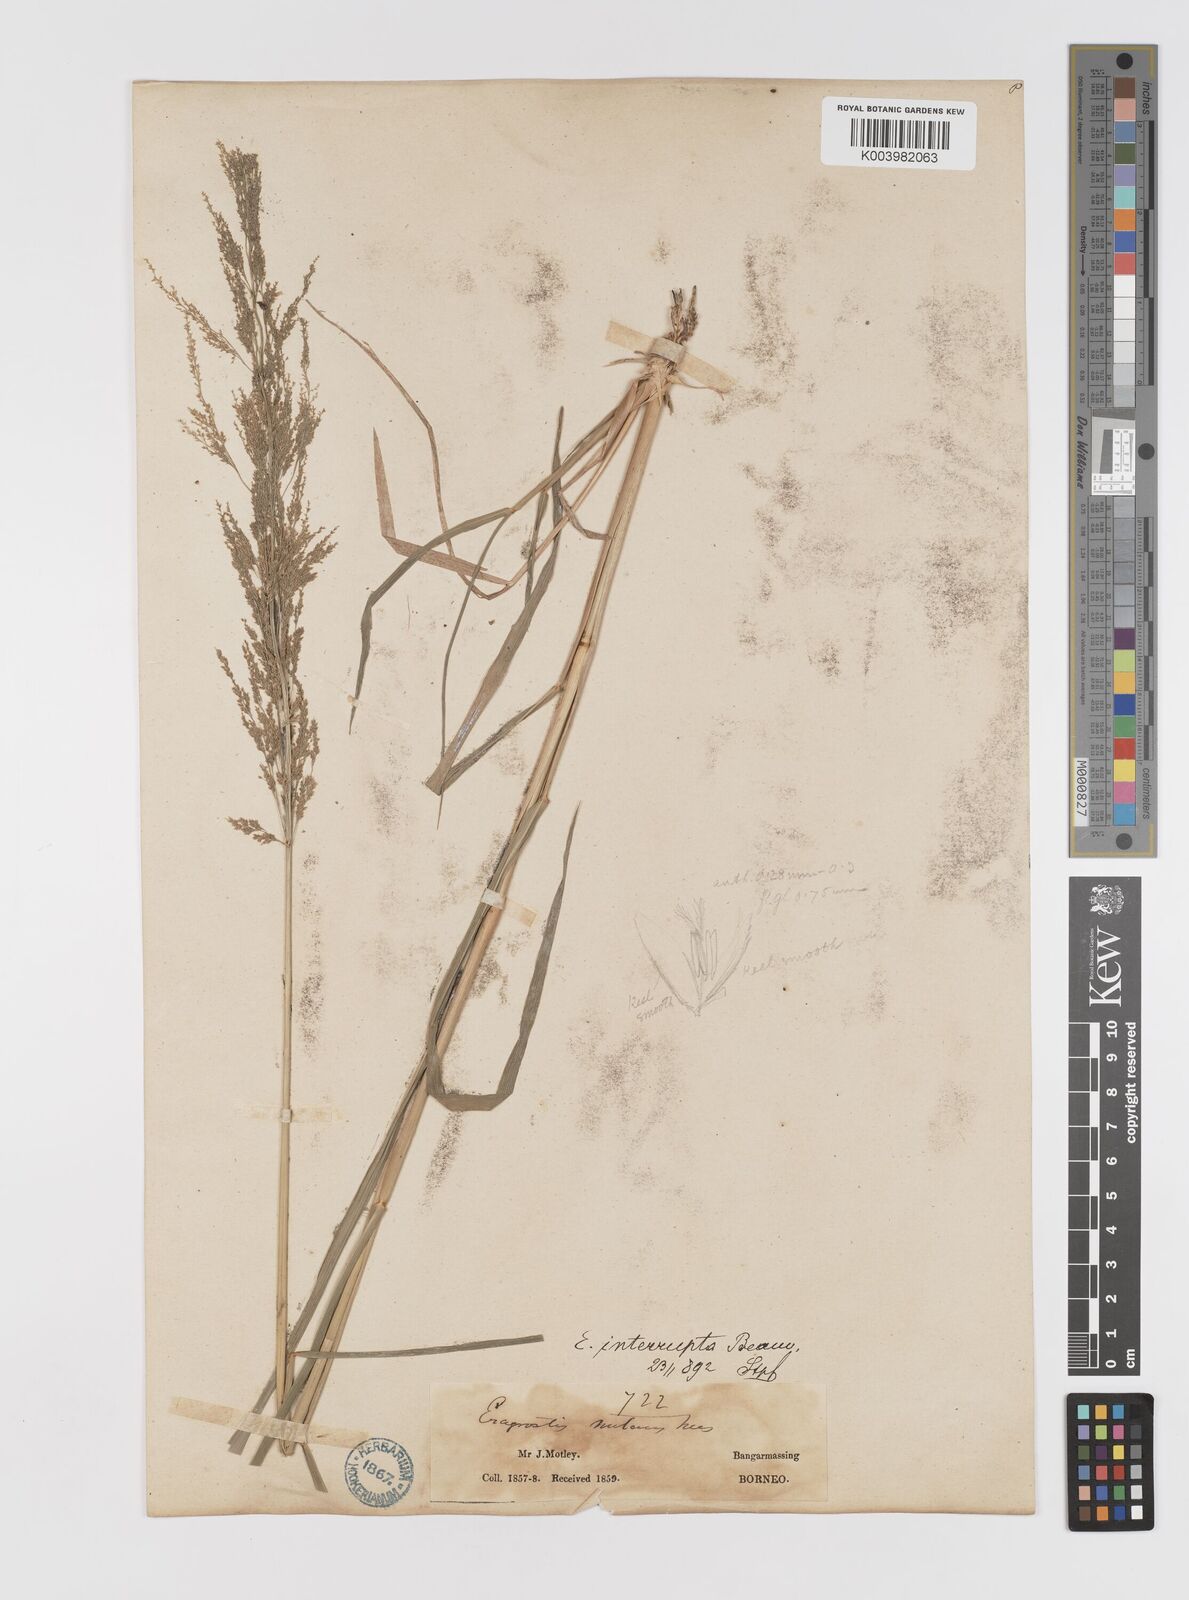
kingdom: Plantae
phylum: Tracheophyta
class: Liliopsida
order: Poales
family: Poaceae
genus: Eragrostis
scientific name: Eragrostis japonica
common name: Pond lovegrass
